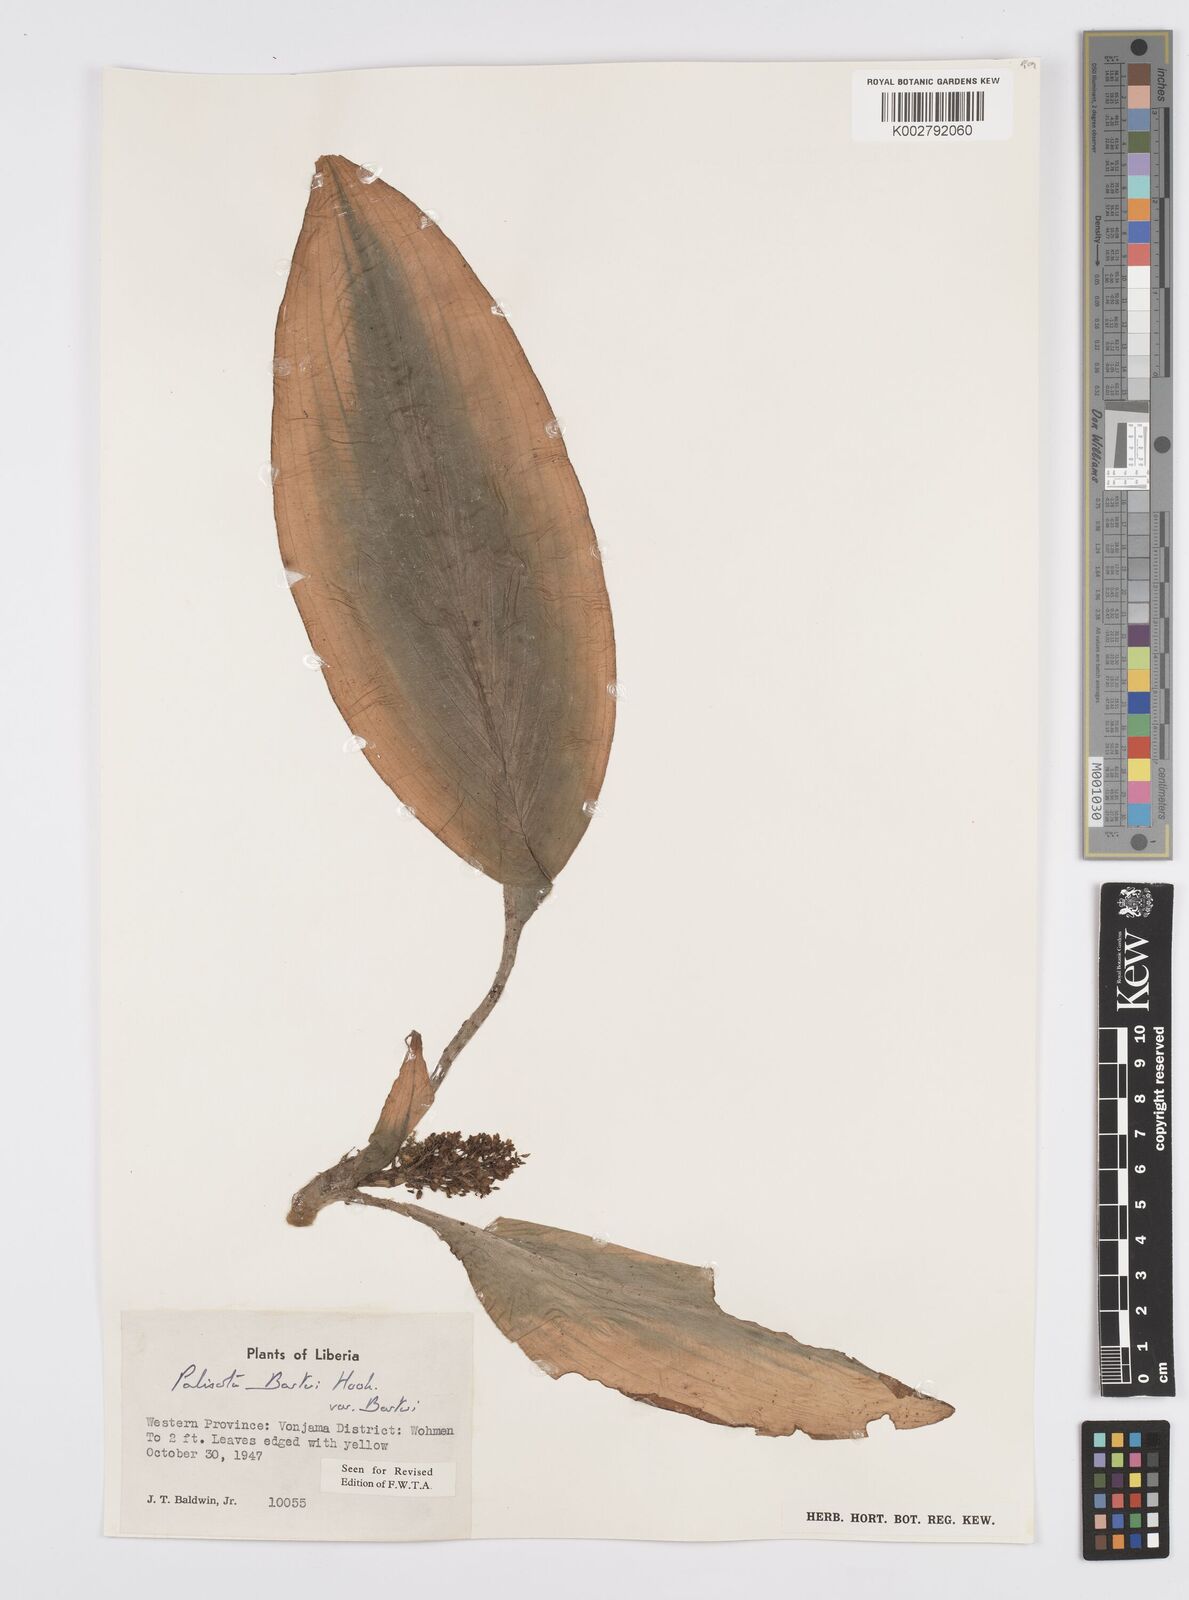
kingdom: Plantae
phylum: Tracheophyta
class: Liliopsida
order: Commelinales
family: Commelinaceae
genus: Palisota
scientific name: Palisota barteri
